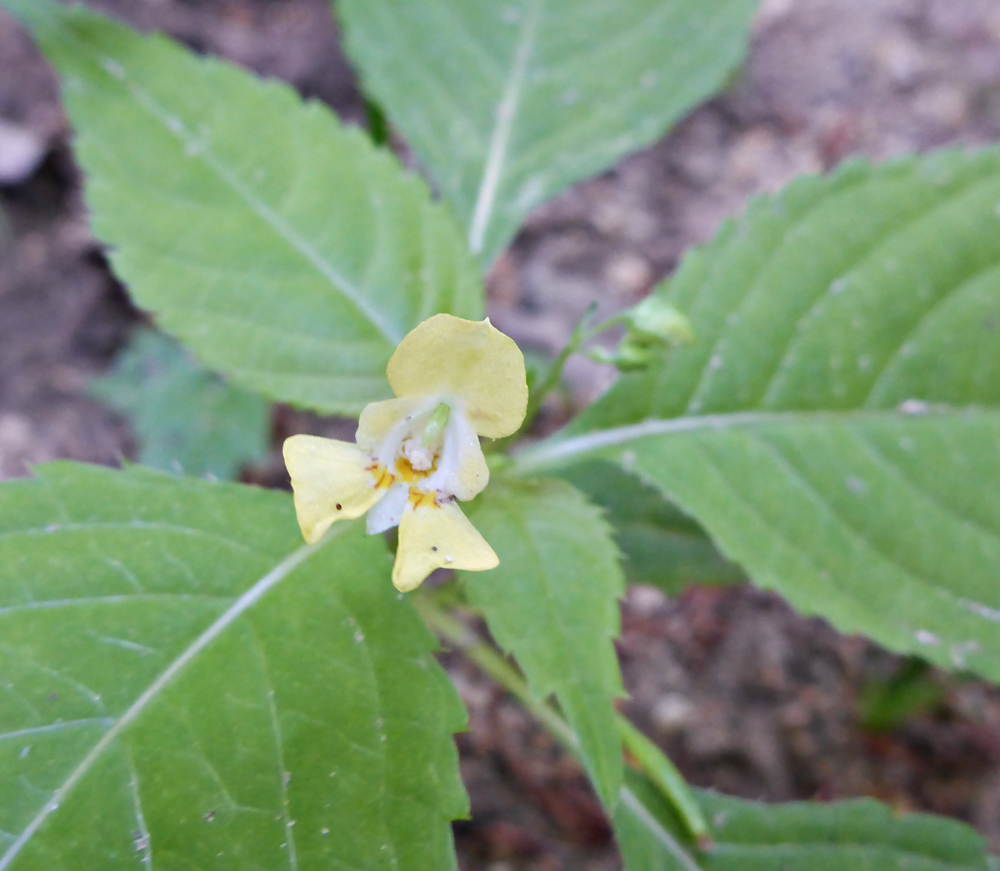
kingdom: Plantae
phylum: Tracheophyta
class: Magnoliopsida
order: Ericales
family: Balsaminaceae
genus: Impatiens
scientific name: Impatiens parviflora
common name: Small balsam
